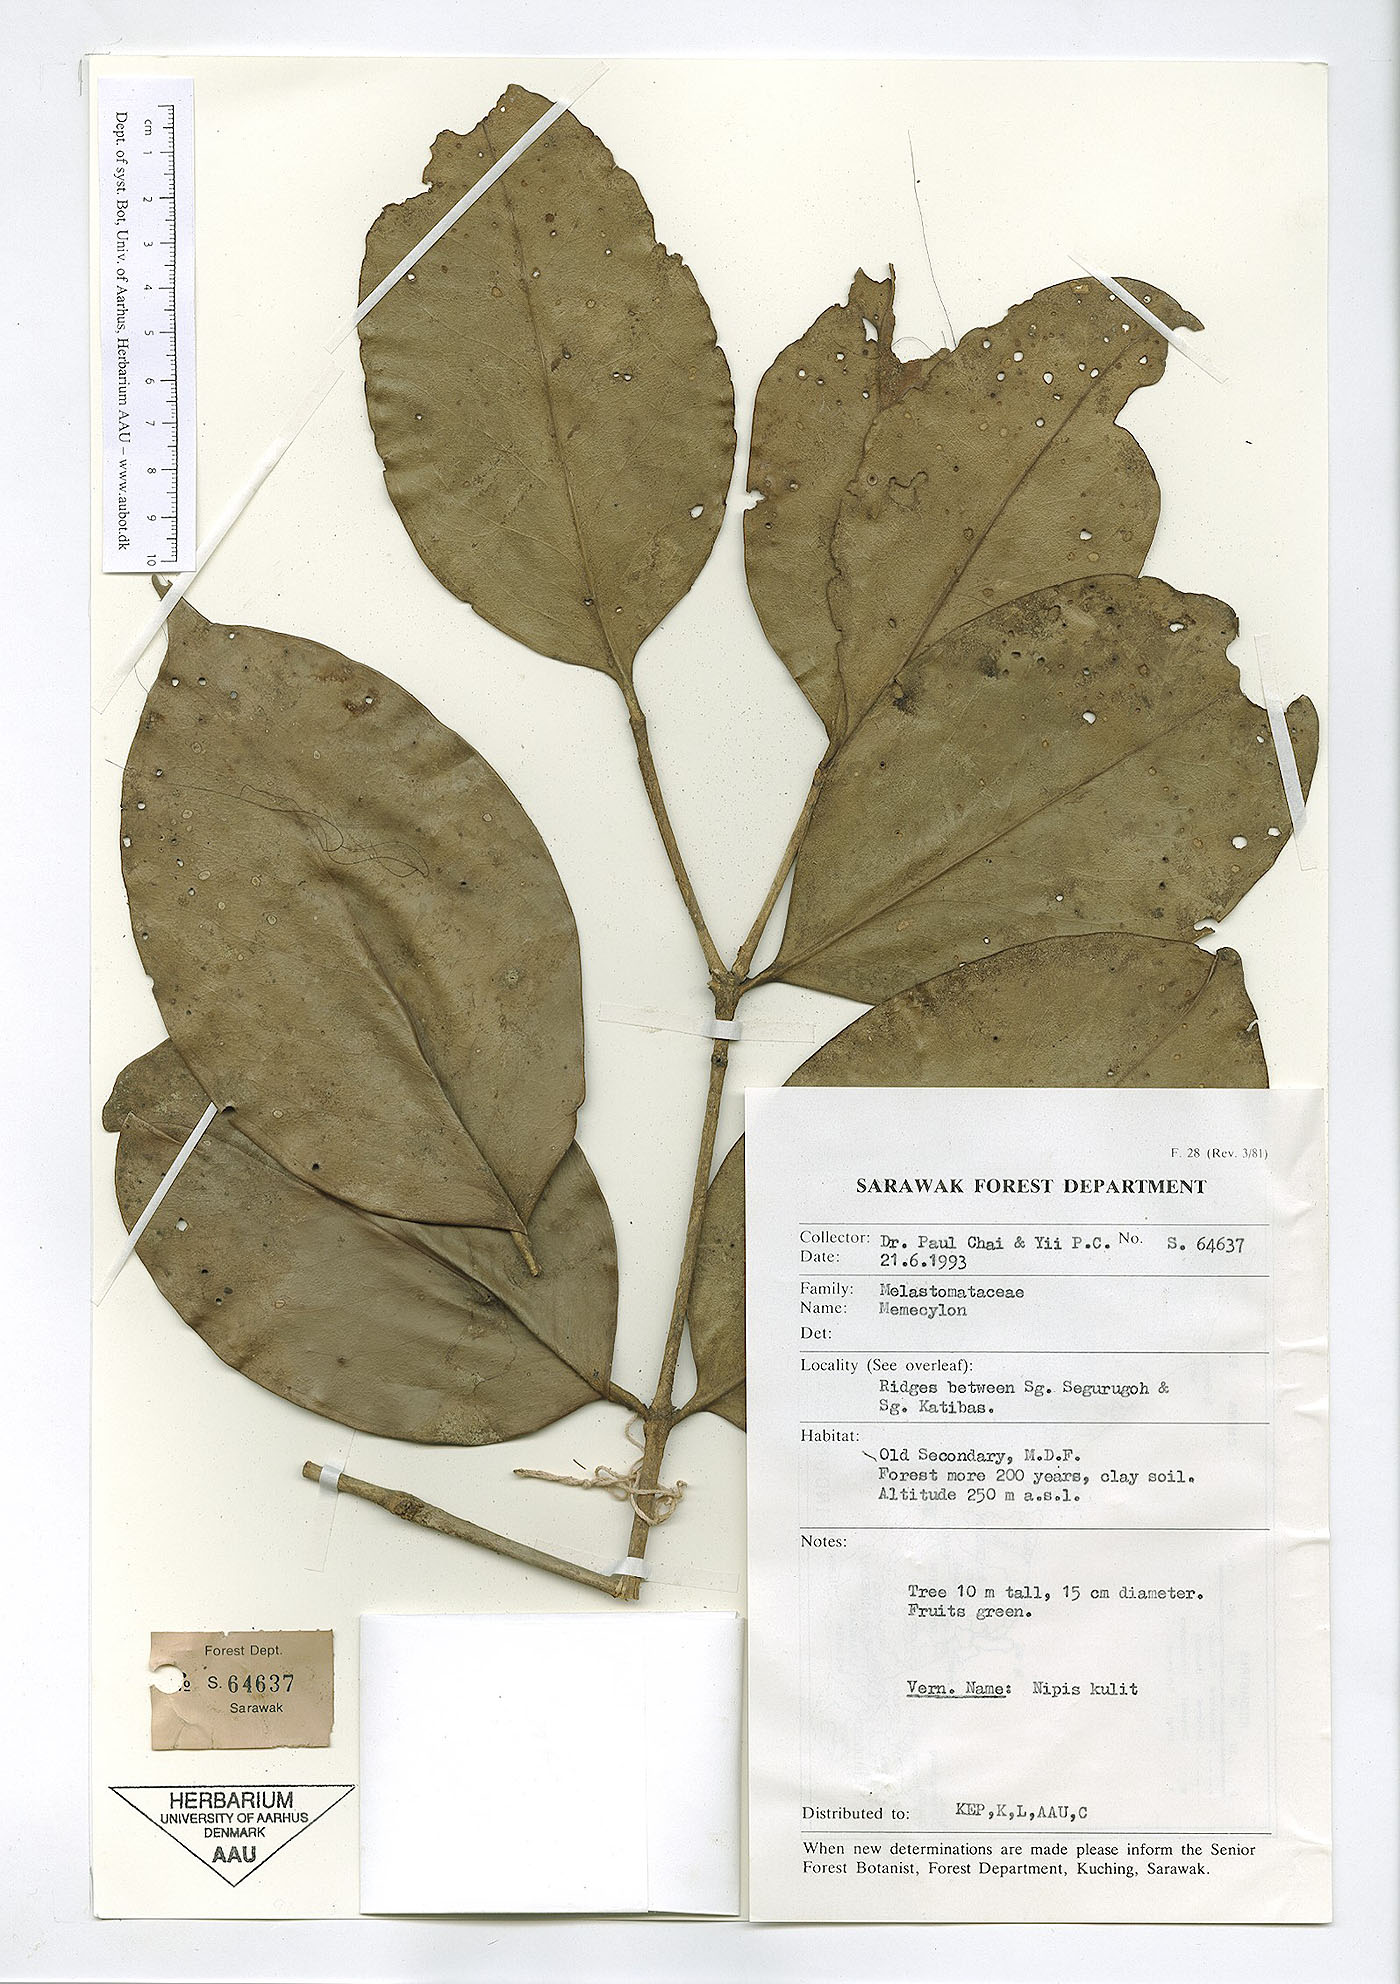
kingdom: Plantae
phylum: Tracheophyta
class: Magnoliopsida
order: Myrtales
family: Melastomataceae
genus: Memecylon
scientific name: Memecylon
